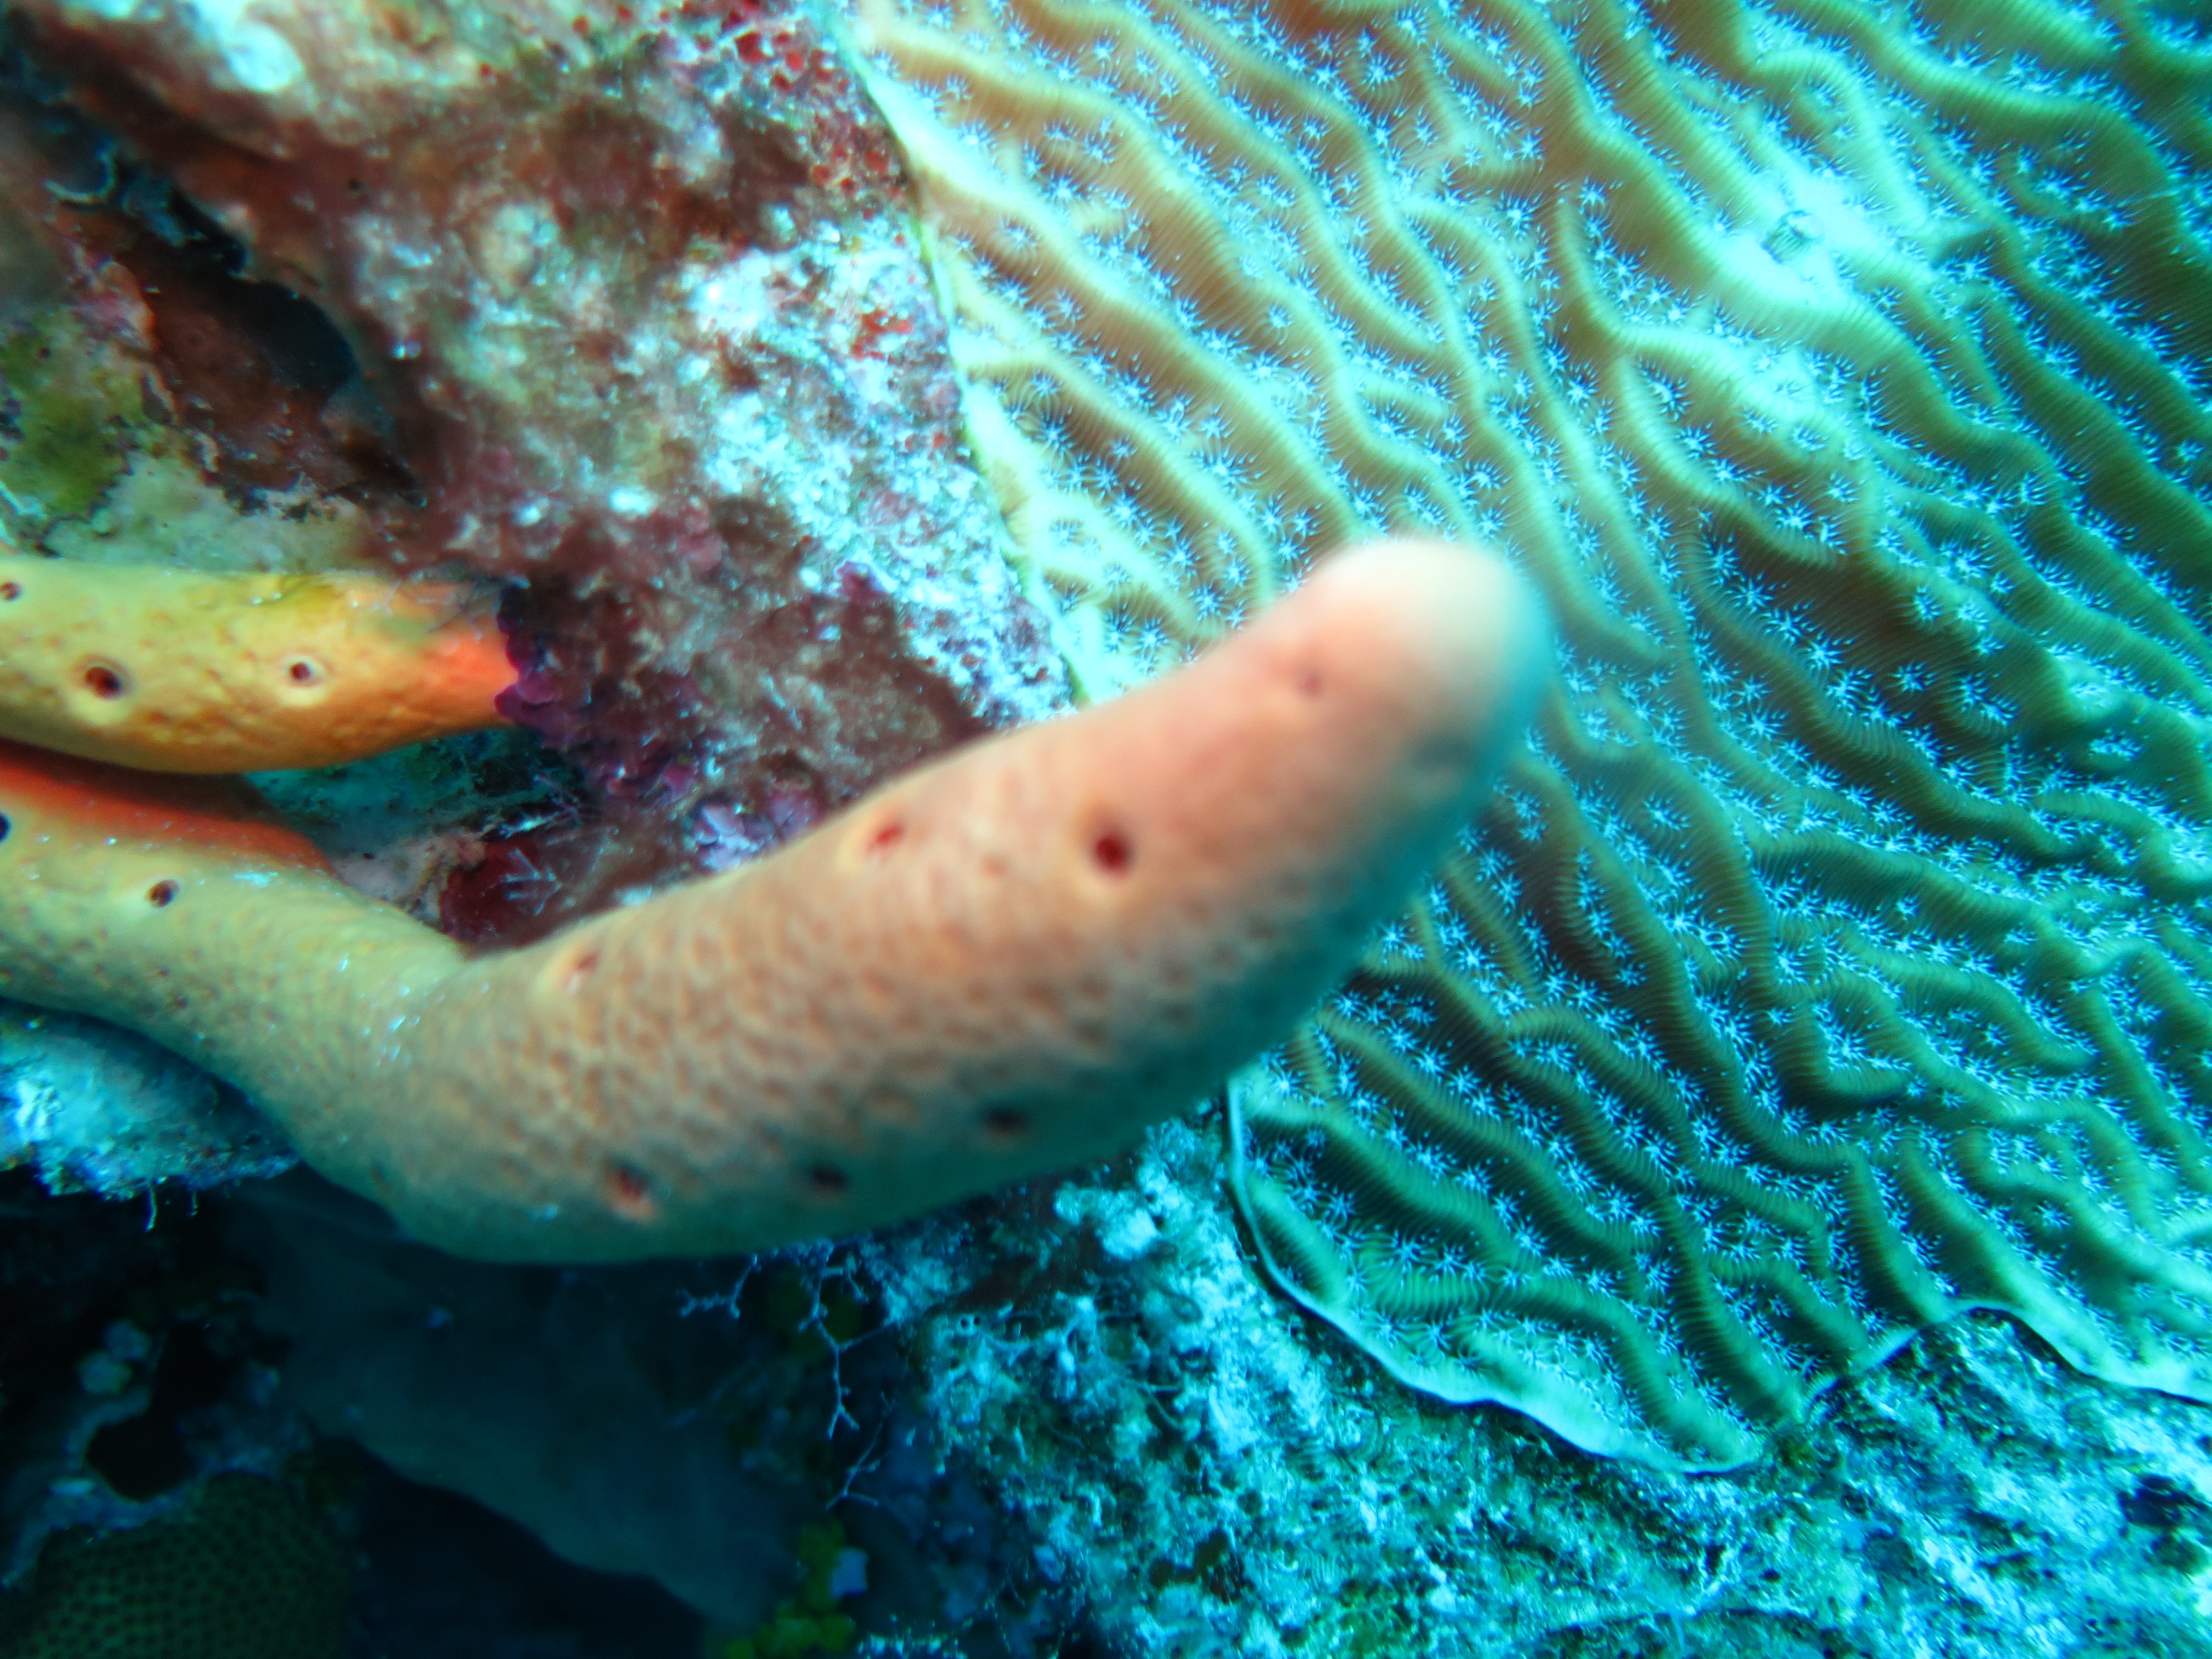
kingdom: Animalia
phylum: Porifera
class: Demospongiae
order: Verongiida
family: Aplysinidae
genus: Aplysina
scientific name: Aplysina
